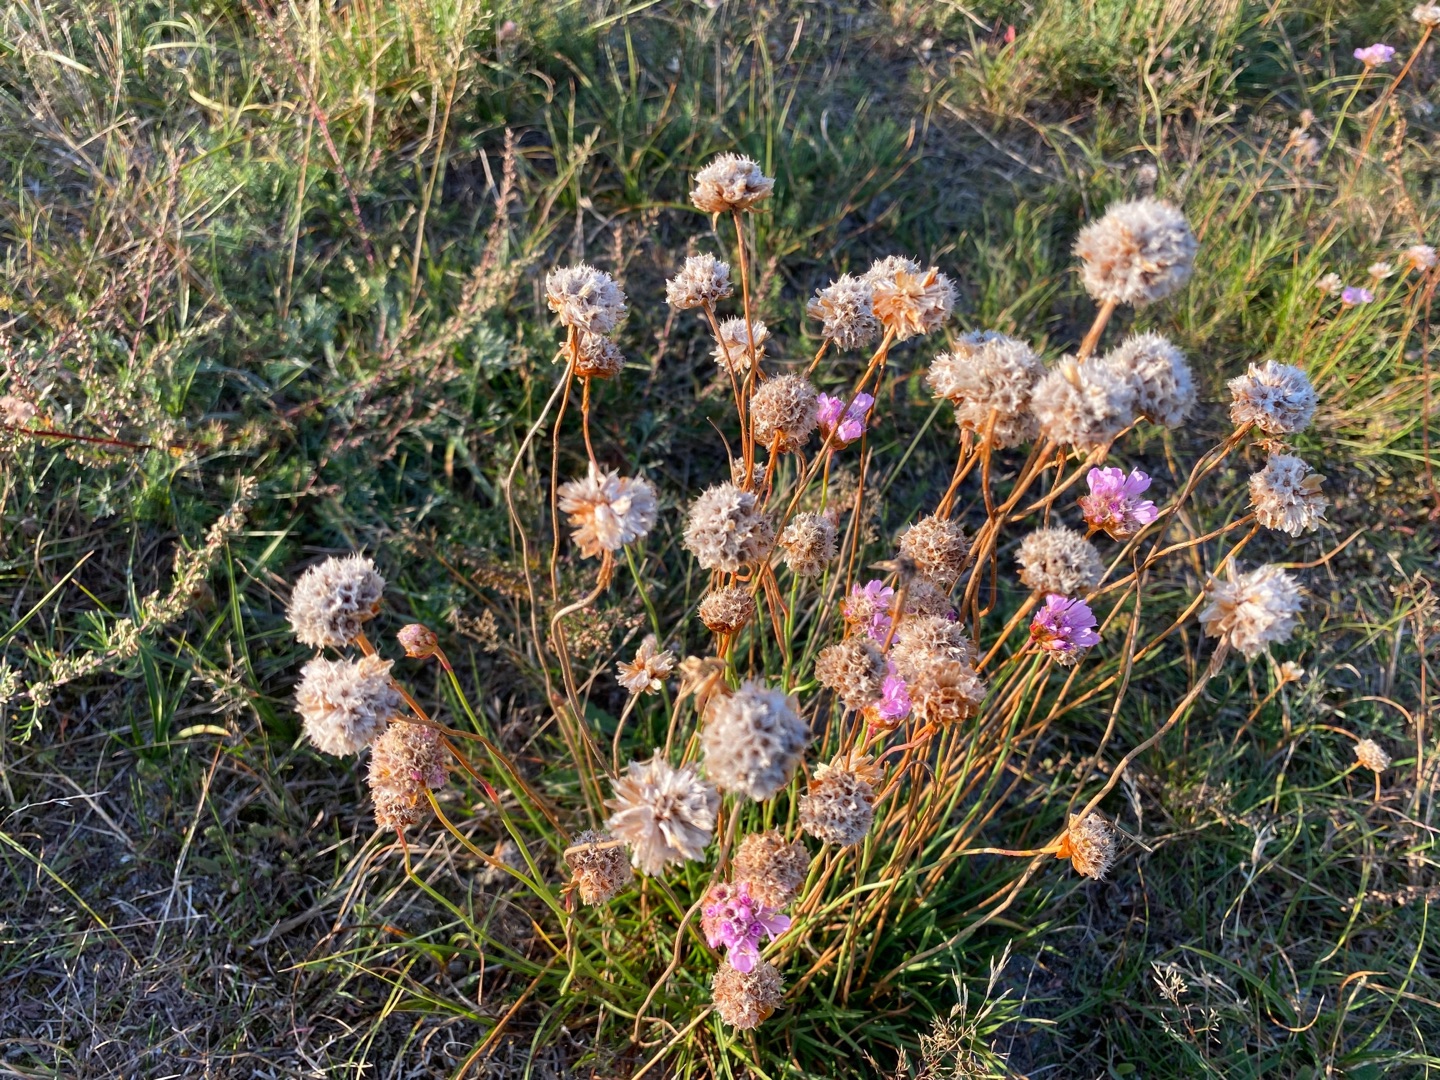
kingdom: Plantae
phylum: Tracheophyta
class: Magnoliopsida
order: Caryophyllales
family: Plumbaginaceae
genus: Armeria
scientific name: Armeria maritima
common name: Engelskgræs
